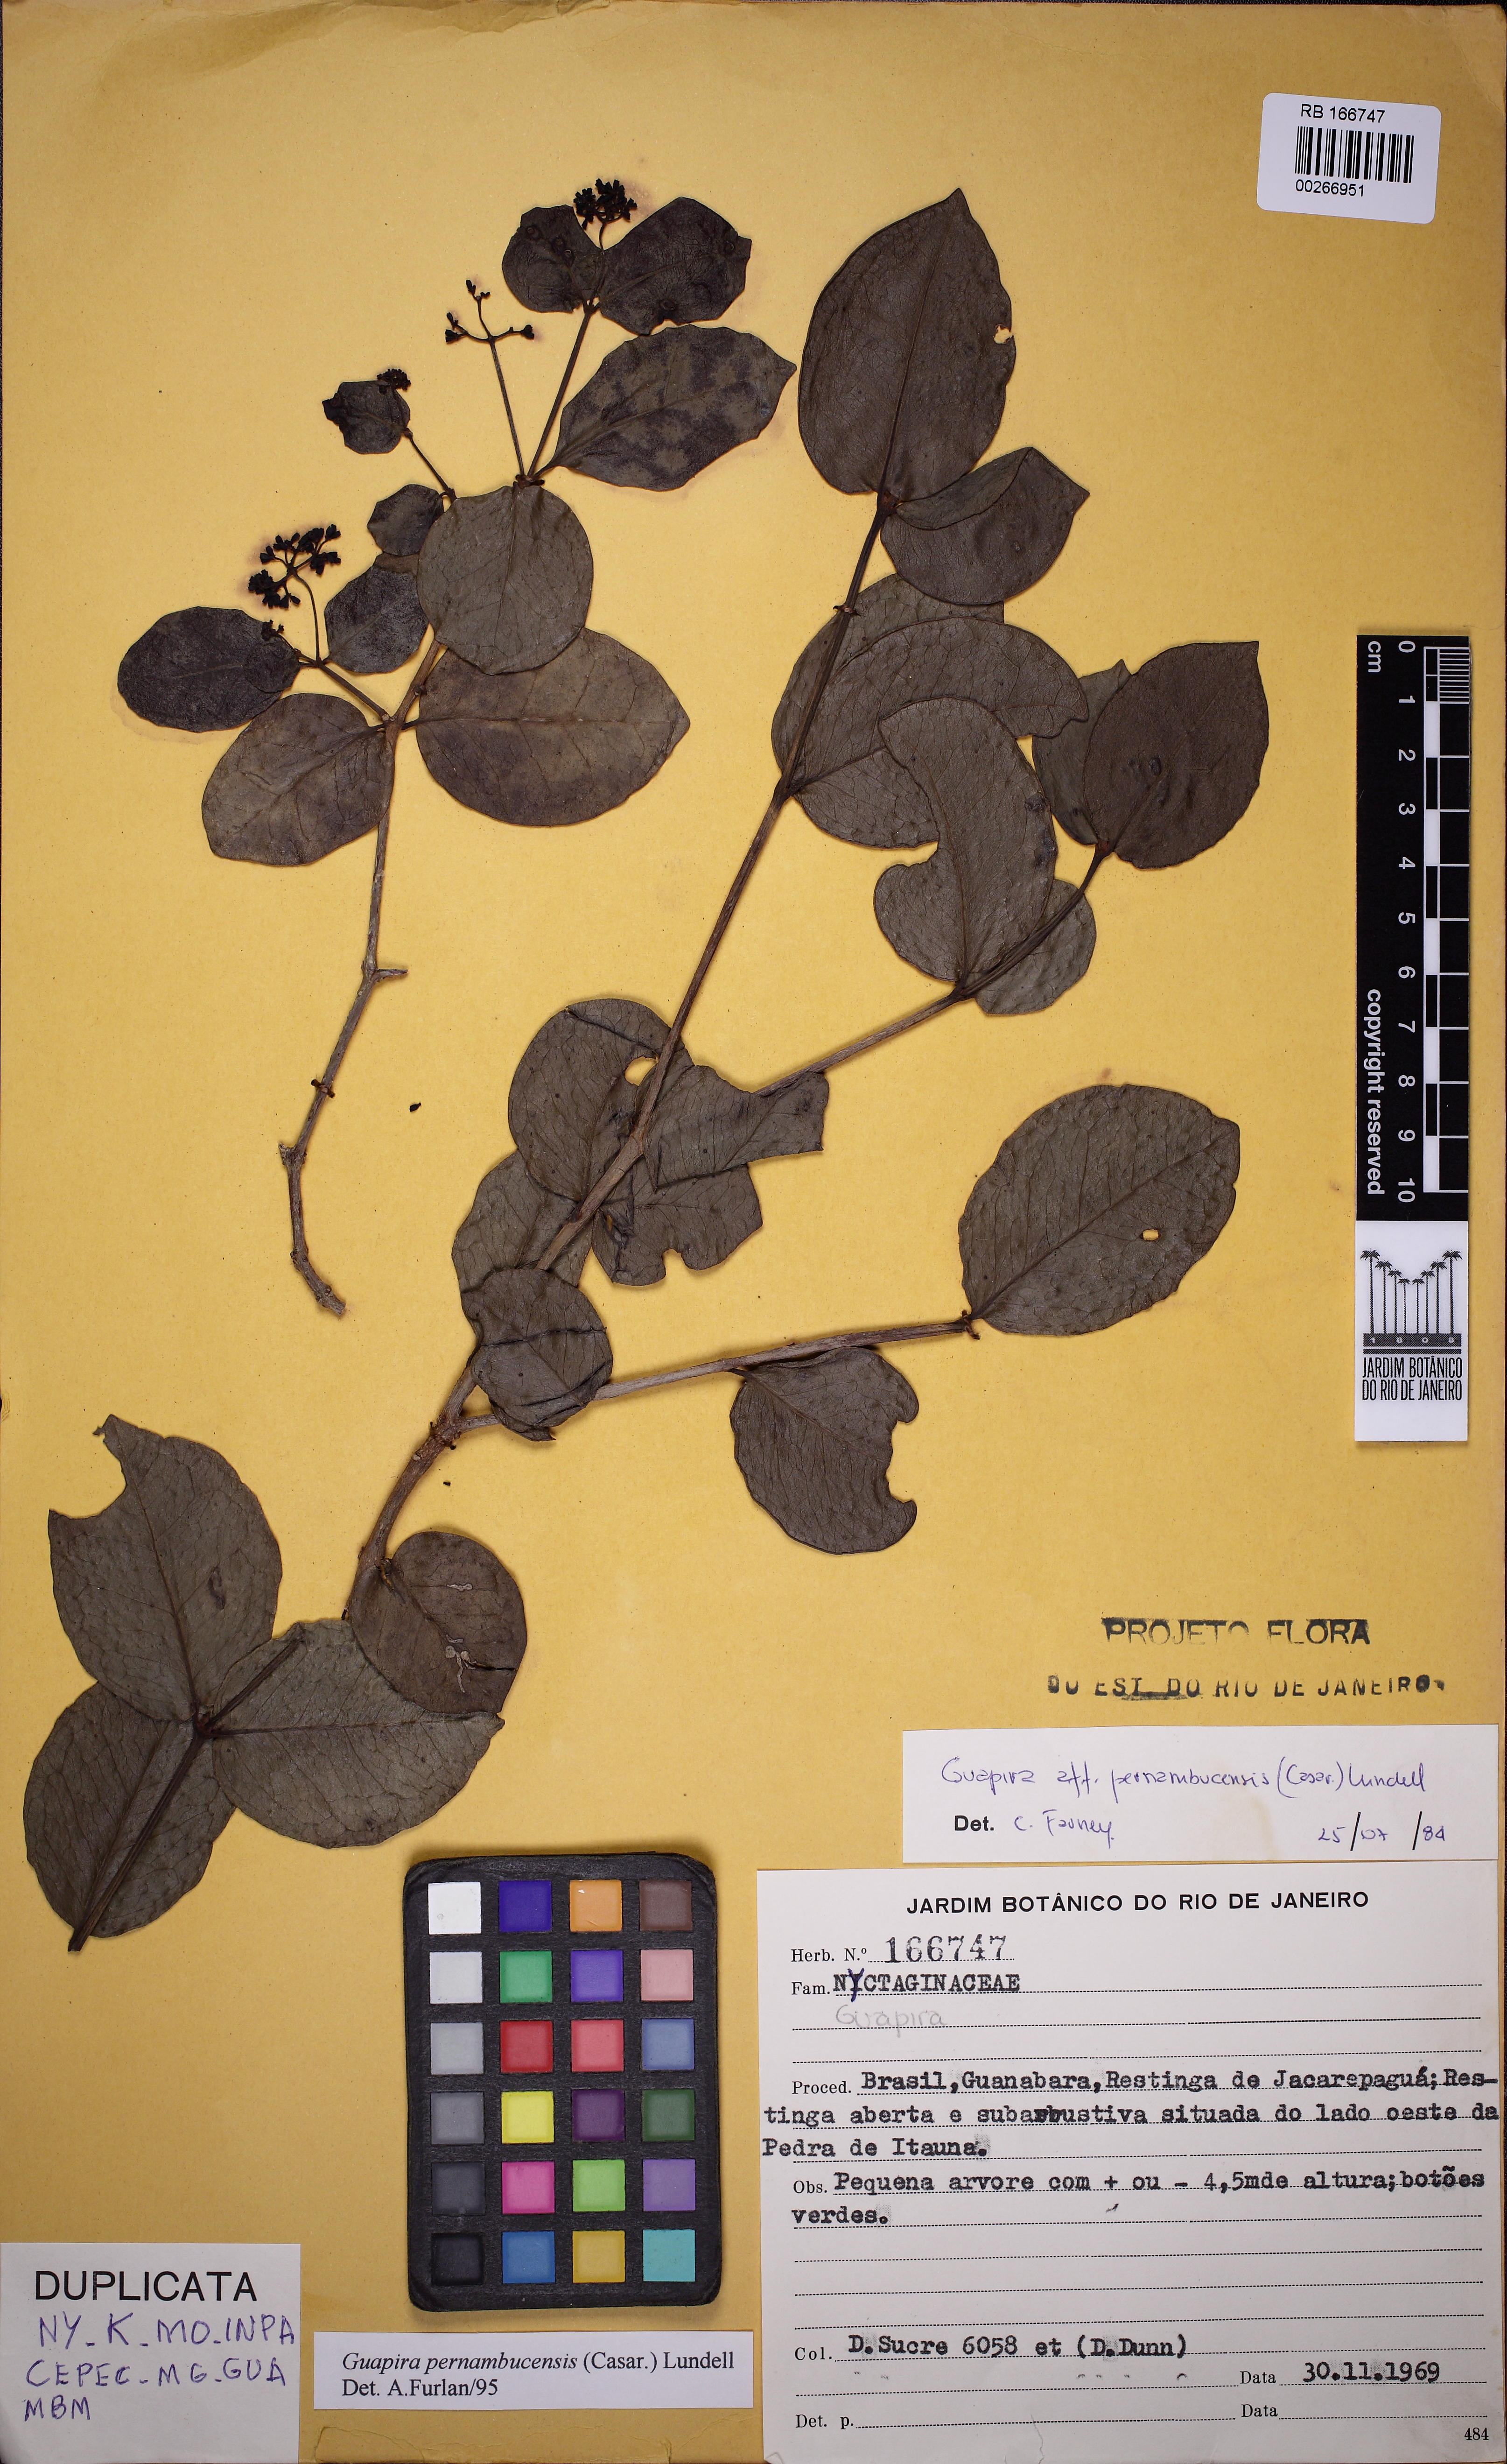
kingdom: Plantae
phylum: Tracheophyta
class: Magnoliopsida
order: Caryophyllales
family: Nyctaginaceae
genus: Guapira
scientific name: Guapira pernambucensis
